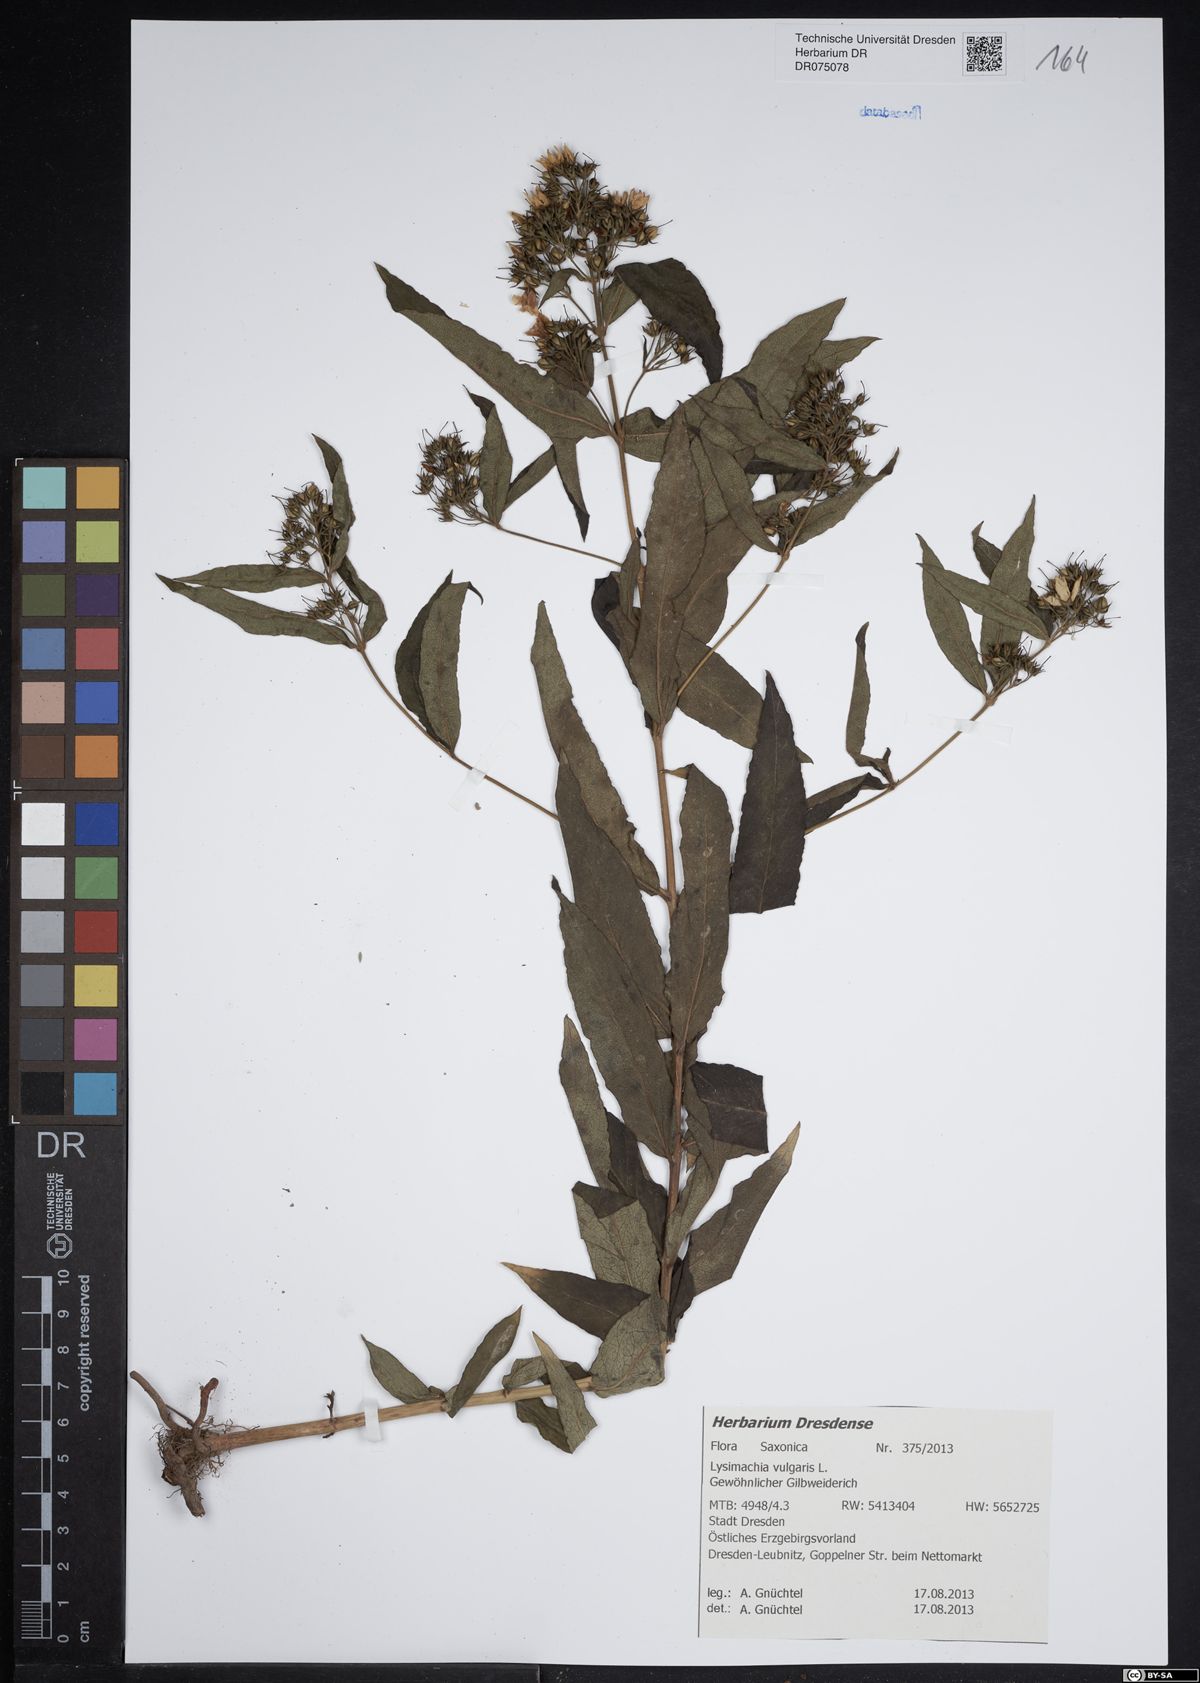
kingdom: Plantae
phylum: Tracheophyta
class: Magnoliopsida
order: Ericales
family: Primulaceae
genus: Lysimachia
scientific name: Lysimachia vulgaris
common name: Yellow loosestrife
